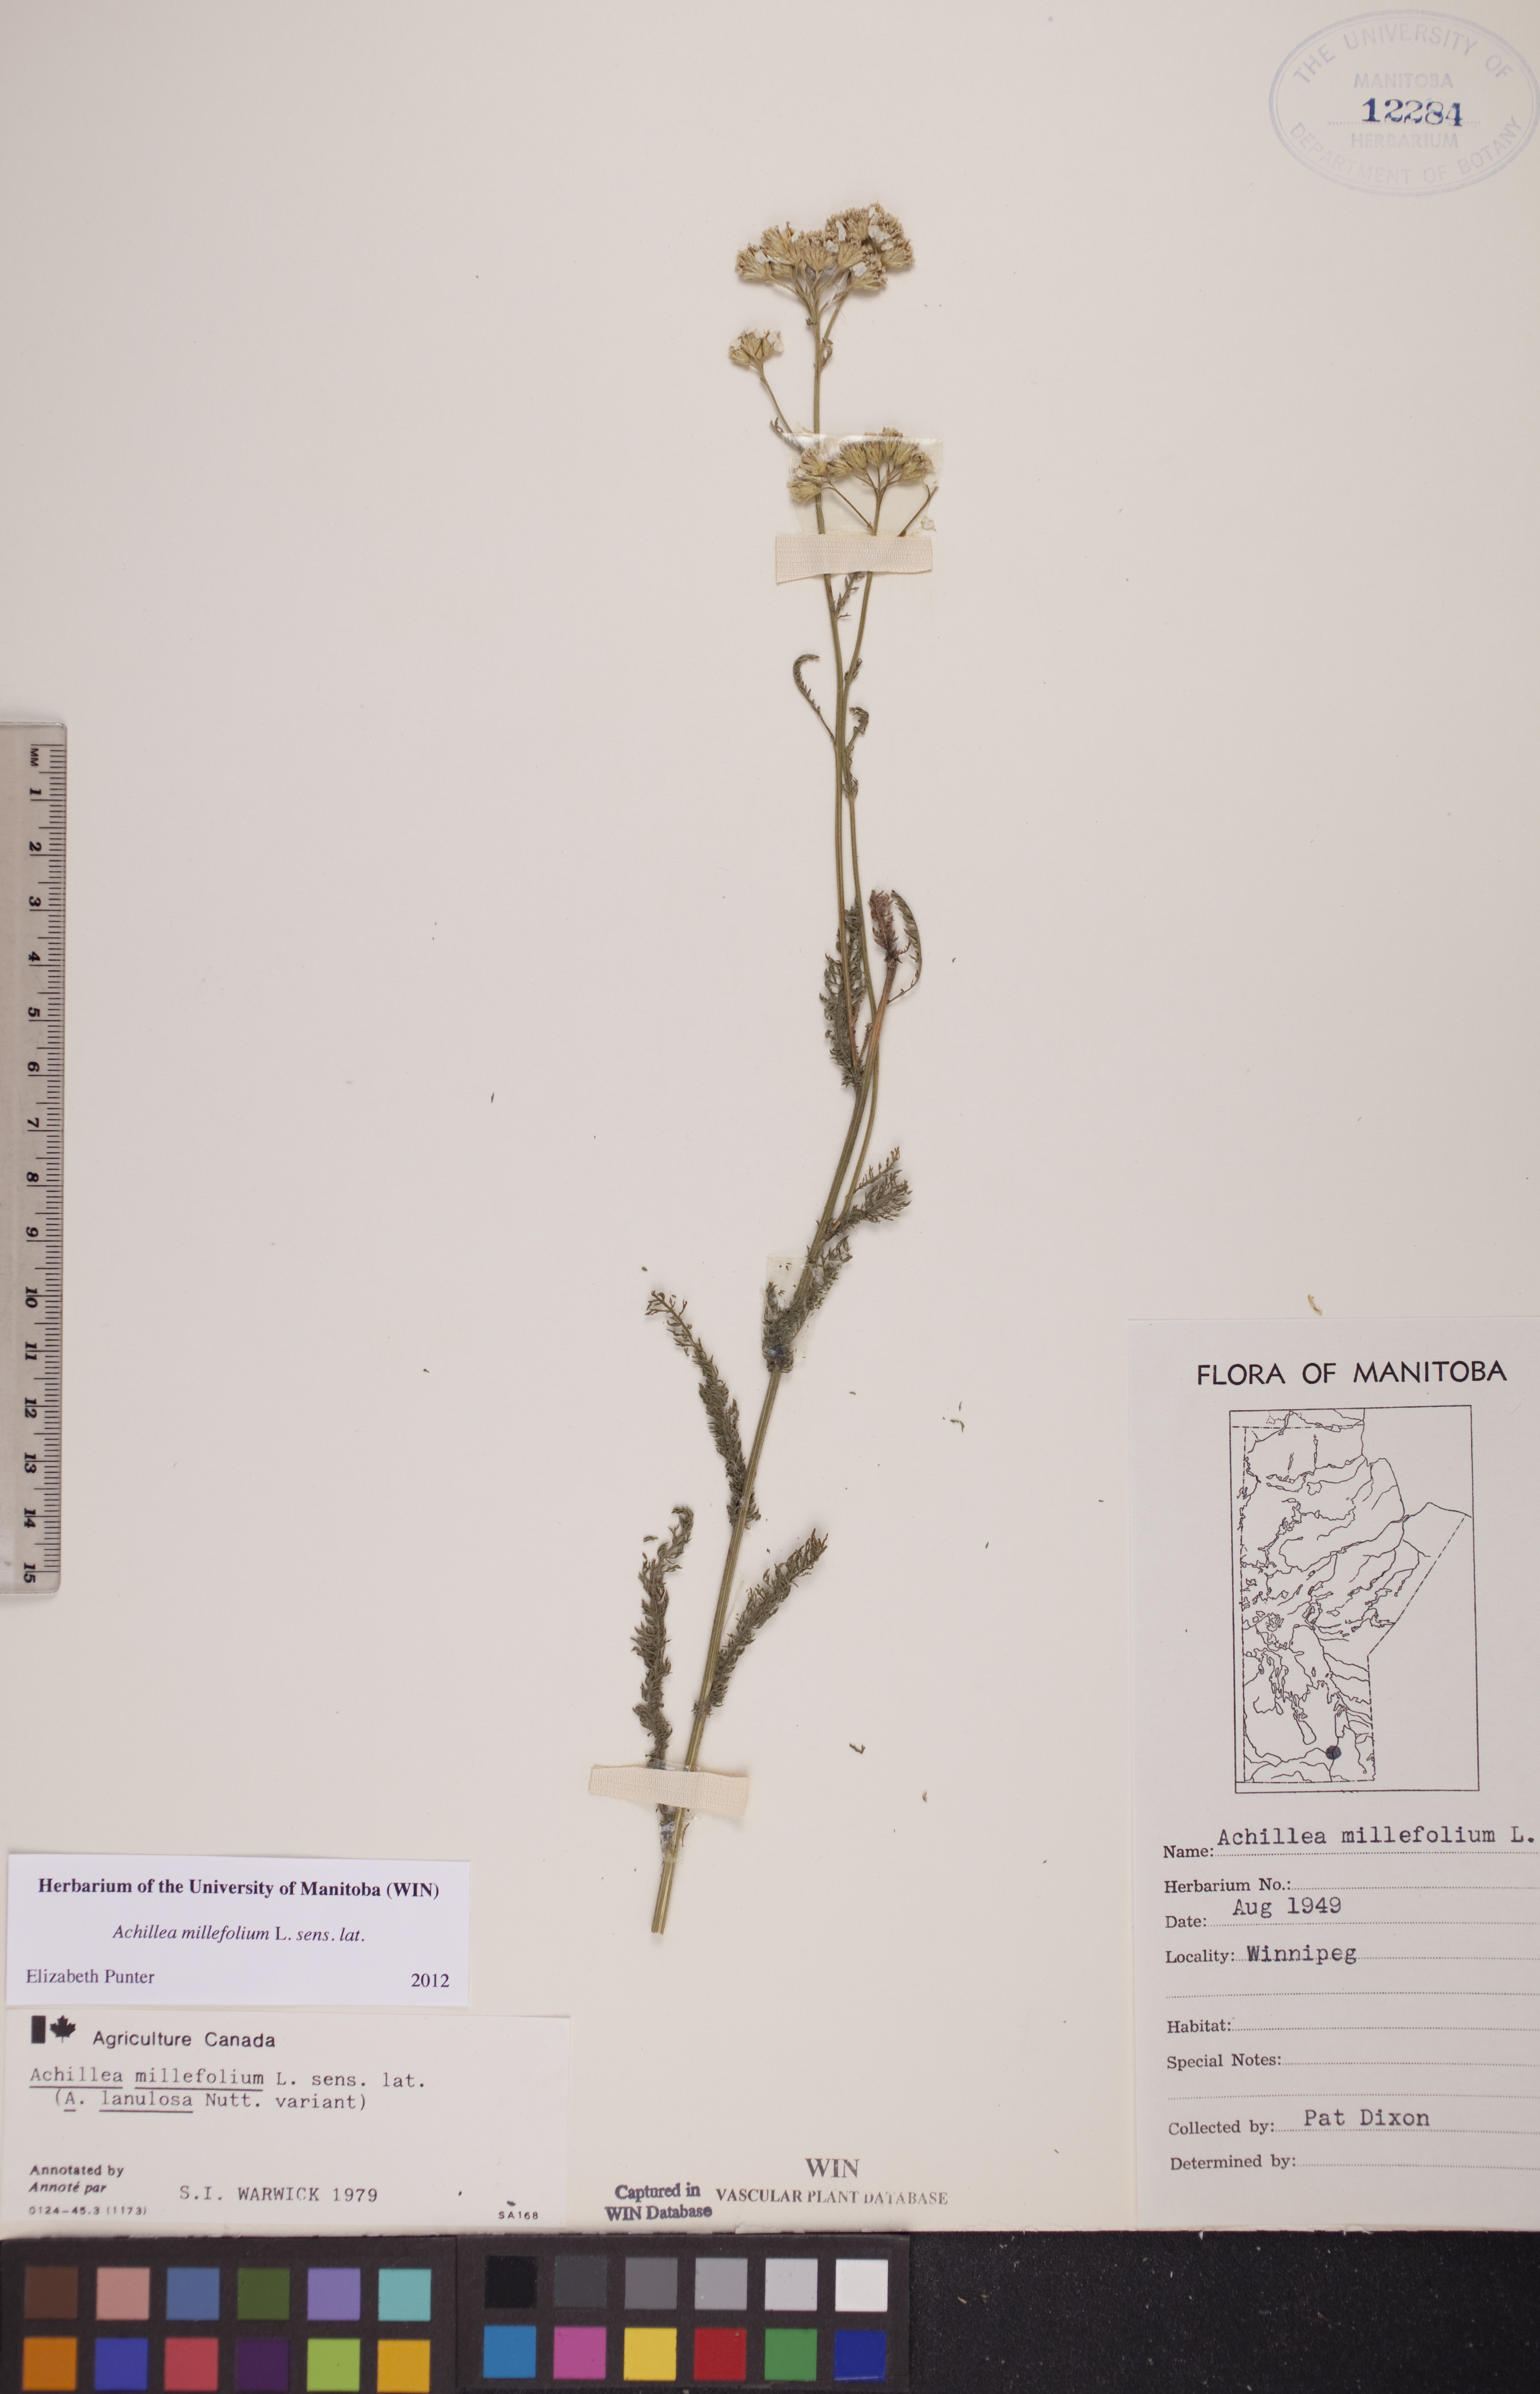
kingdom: Plantae
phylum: Tracheophyta
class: Magnoliopsida
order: Asterales
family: Asteraceae
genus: Achillea
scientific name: Achillea millefolium
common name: Yarrow
